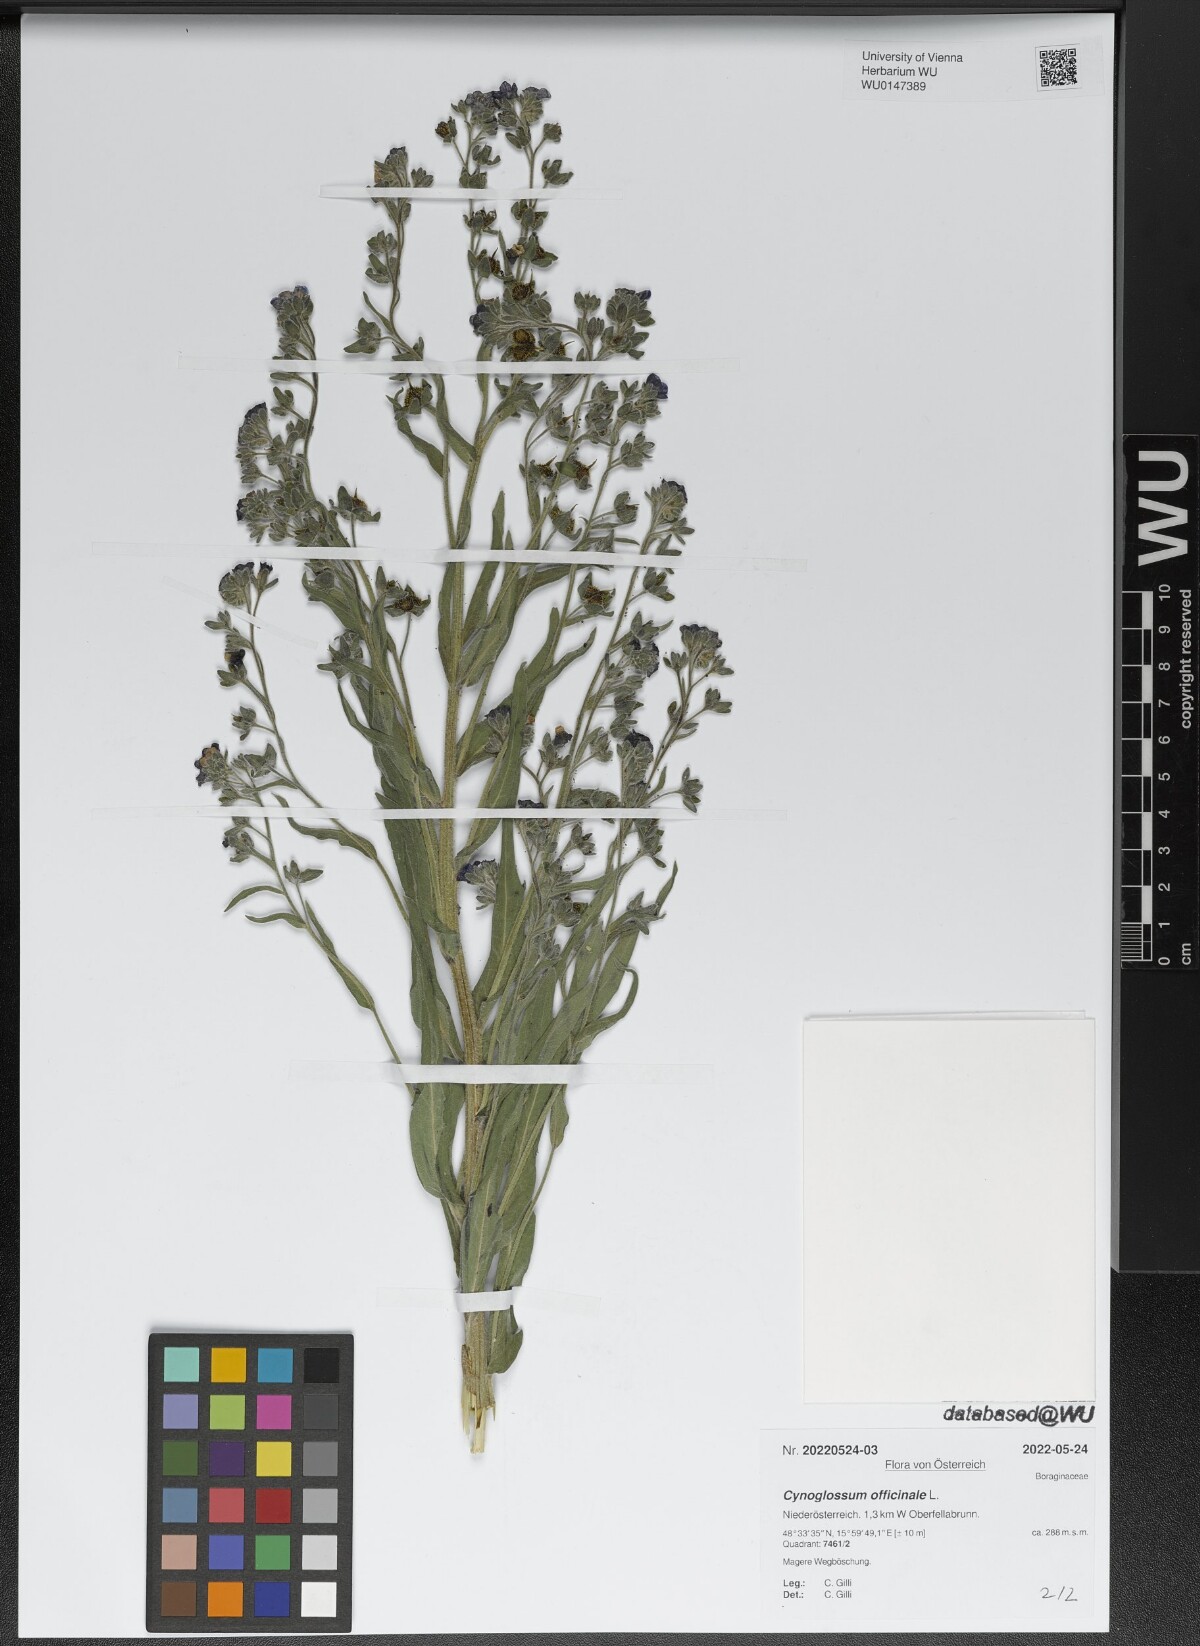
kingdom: Plantae
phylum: Tracheophyta
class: Magnoliopsida
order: Boraginales
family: Boraginaceae
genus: Cynoglossum
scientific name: Cynoglossum officinale
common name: Hound's-tongue
